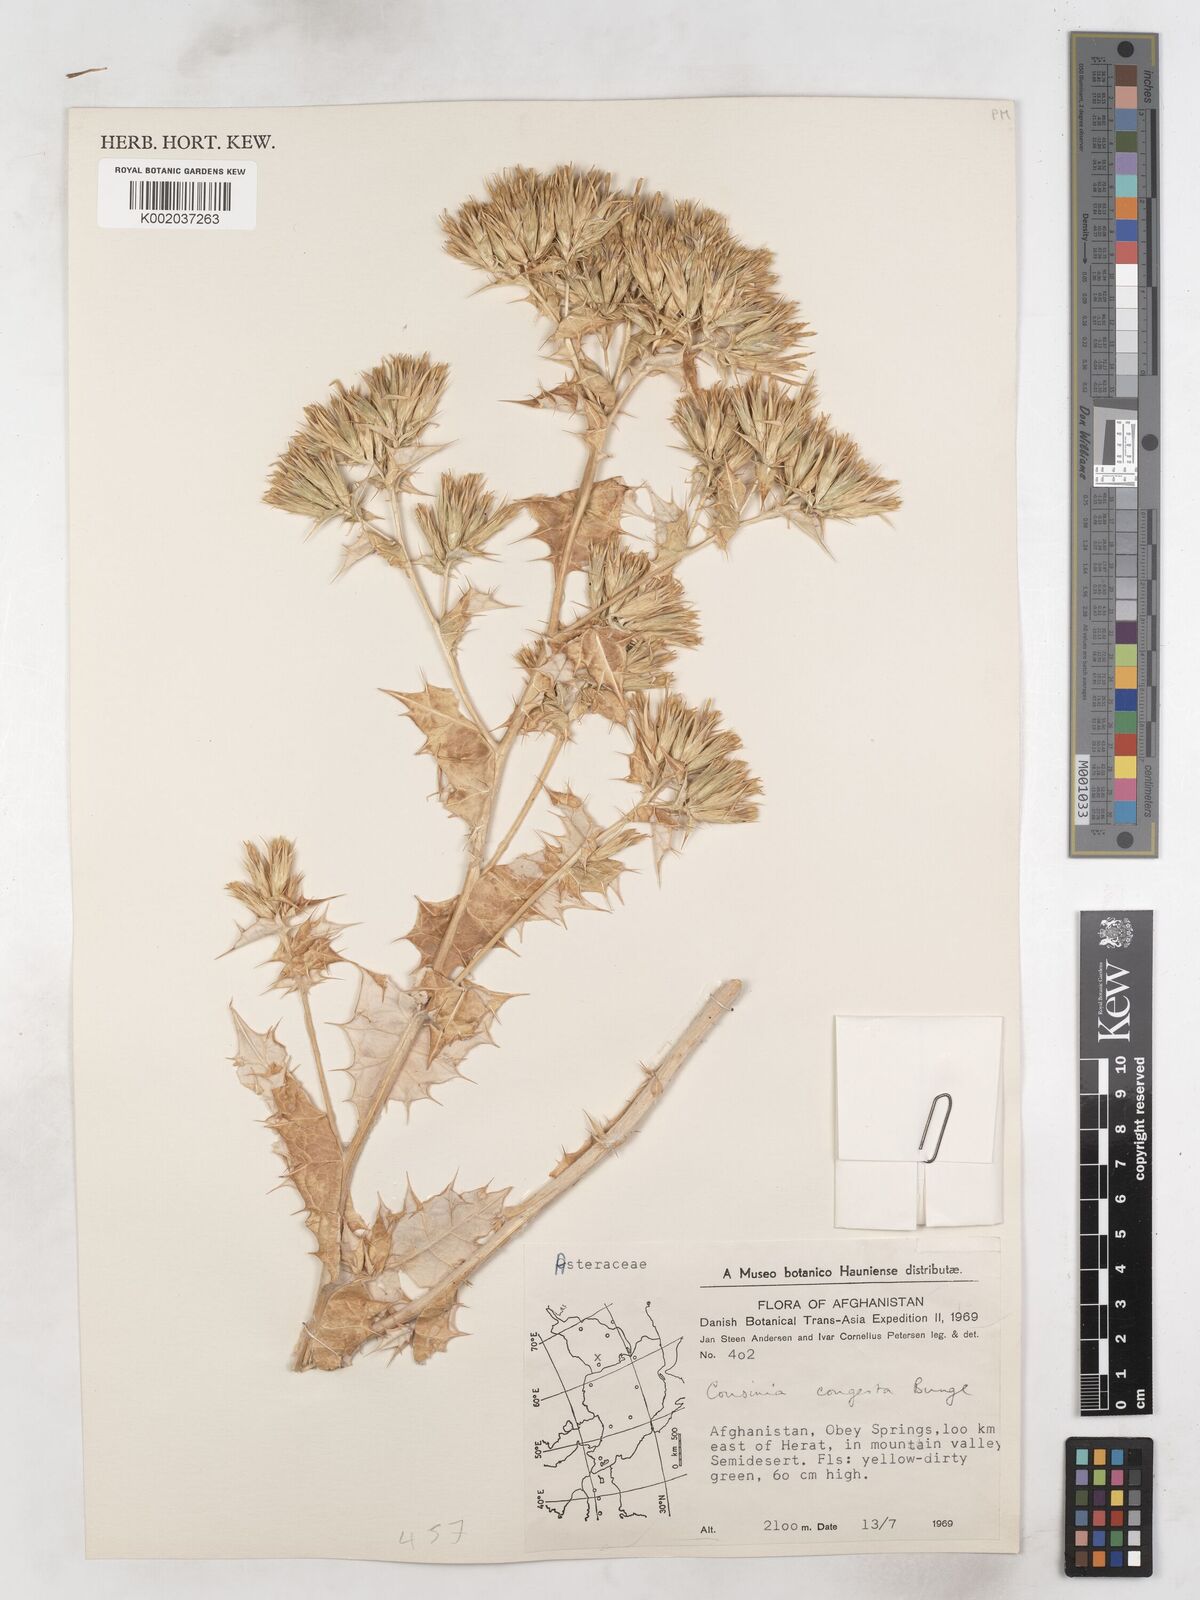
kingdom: Plantae
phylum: Tracheophyta
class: Magnoliopsida
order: Asterales
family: Asteraceae
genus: Cousinia
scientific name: Cousinia congesta
